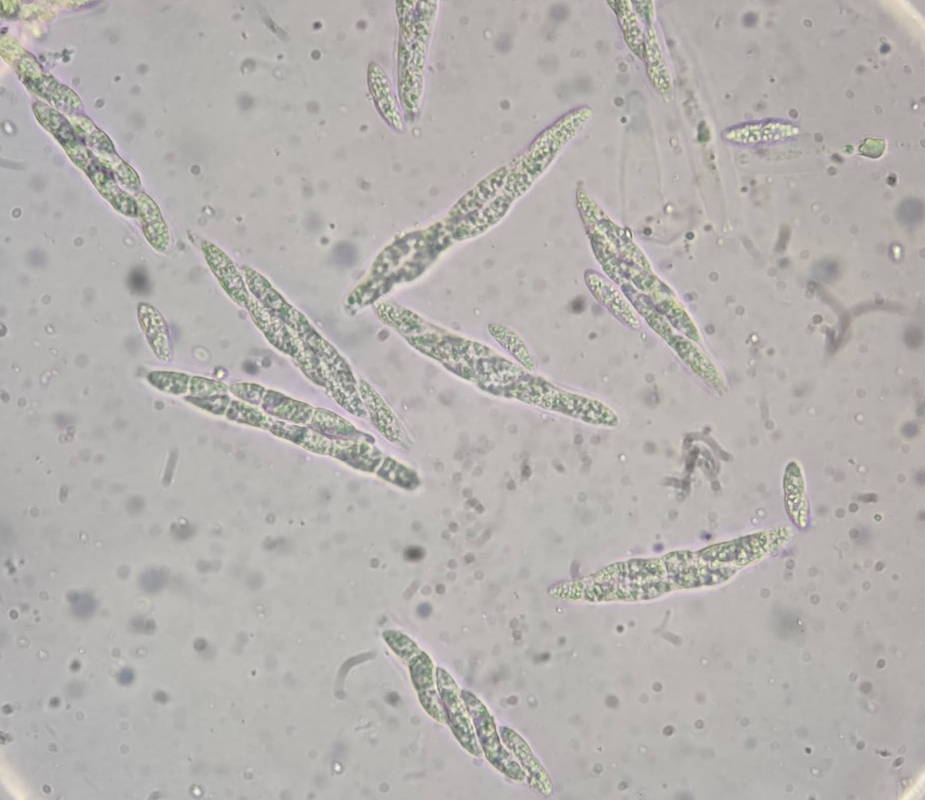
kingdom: Fungi
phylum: Ascomycota
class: Sordariomycetes
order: Diaporthales
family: Erythrogloeaceae
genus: Dendrostoma
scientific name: Dendrostoma leiphaemia
